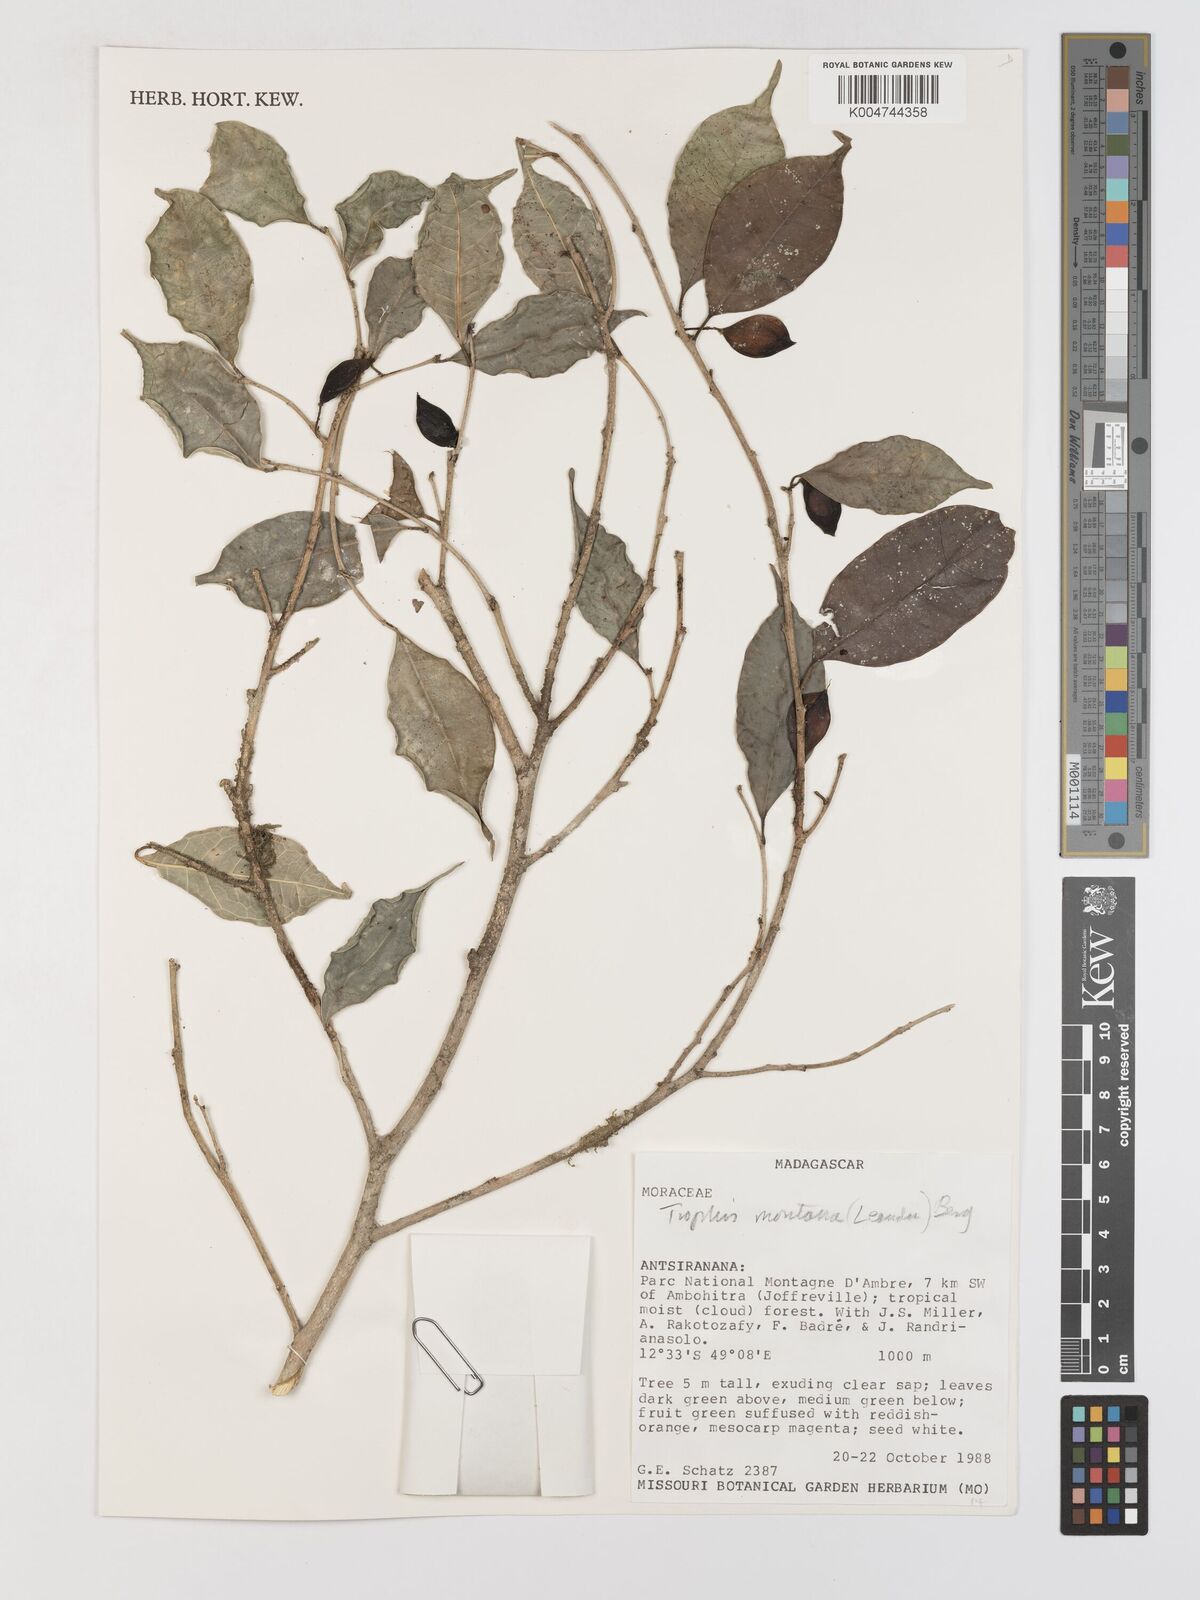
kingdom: Plantae
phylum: Tracheophyta
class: Magnoliopsida
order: Rosales
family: Moraceae
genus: Maillardia
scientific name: Maillardia montana
